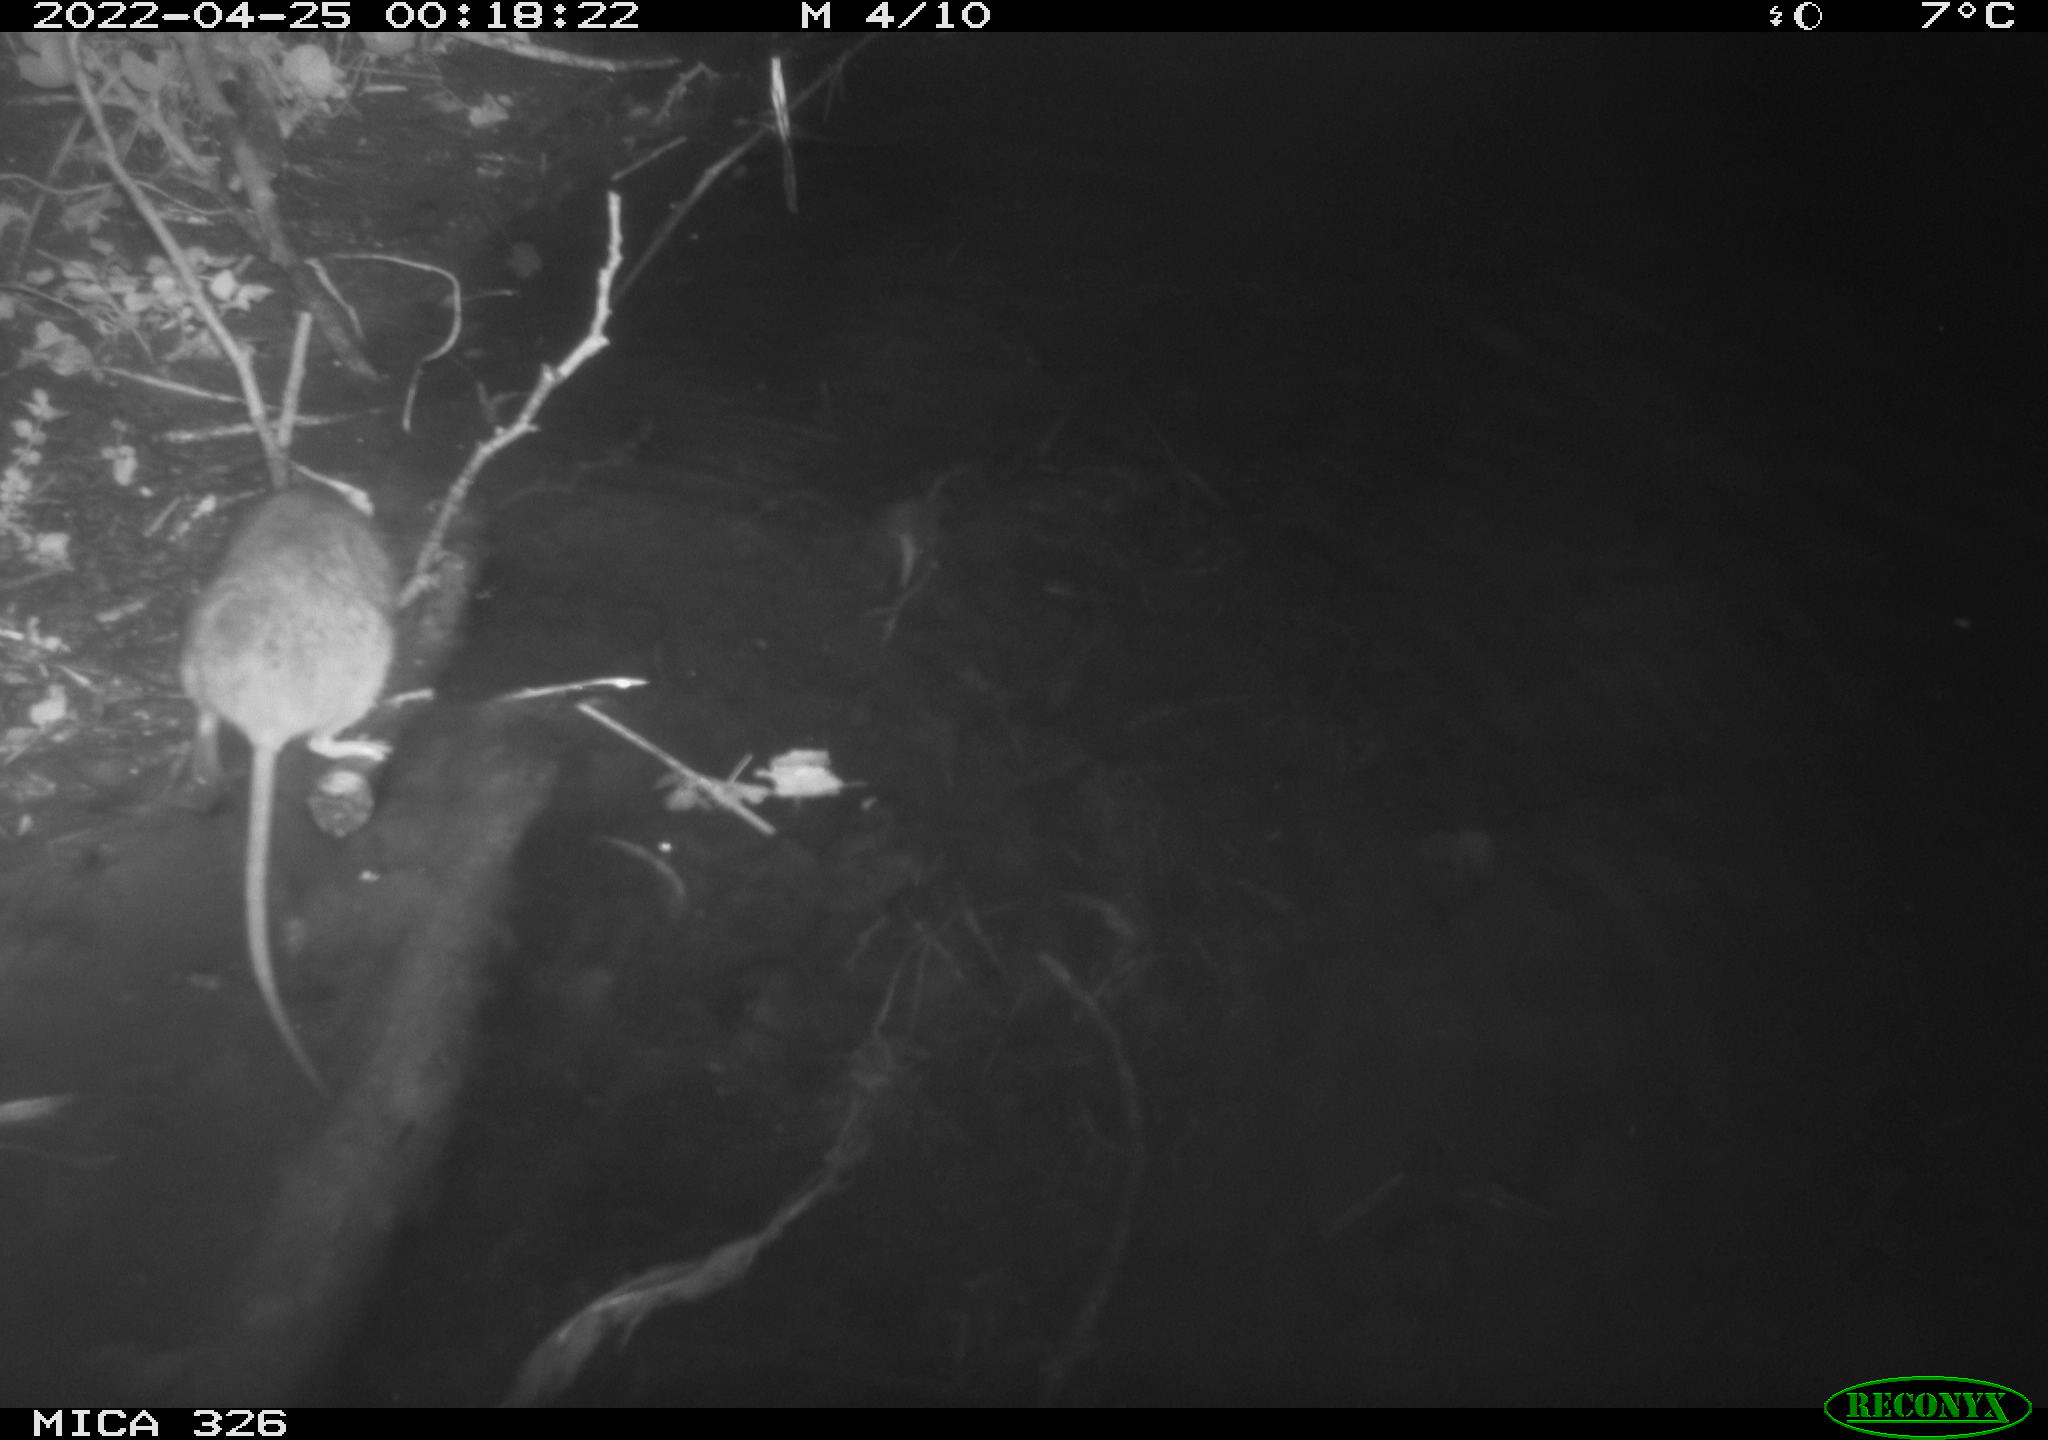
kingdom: Animalia
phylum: Chordata
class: Mammalia
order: Rodentia
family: Muridae
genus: Rattus
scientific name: Rattus norvegicus
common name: Brown rat
